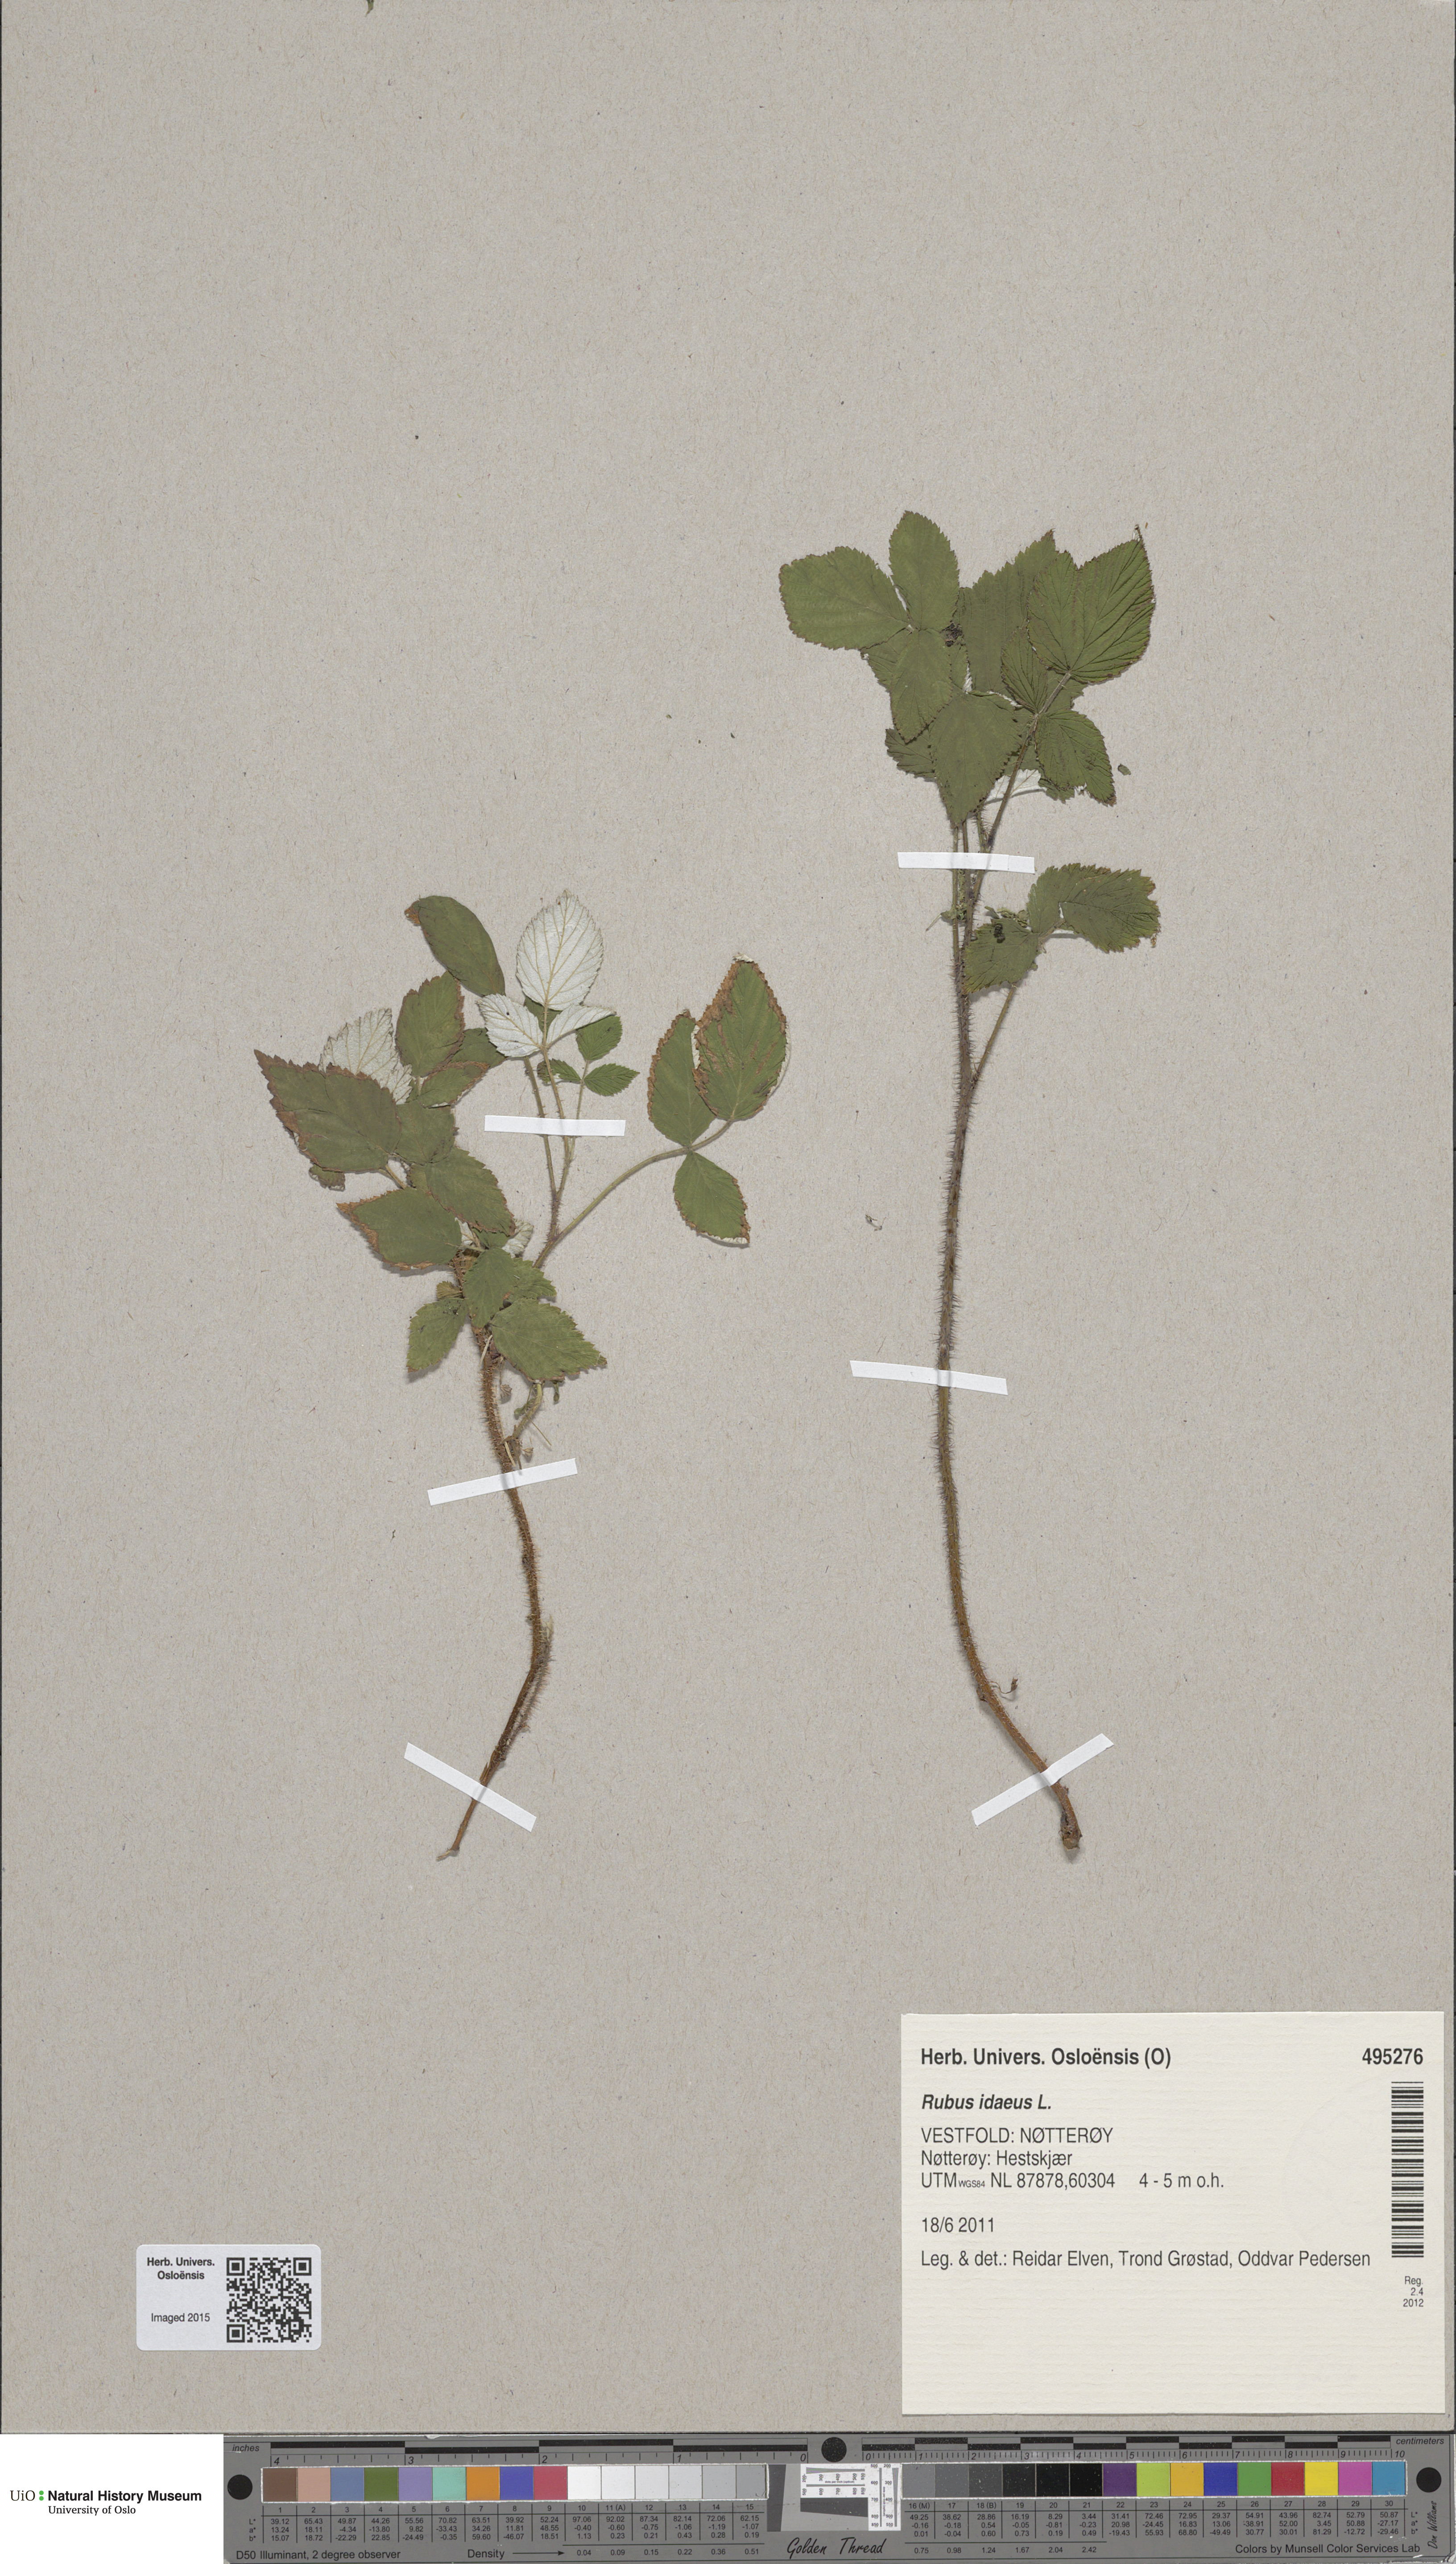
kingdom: Plantae
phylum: Tracheophyta
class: Magnoliopsida
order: Rosales
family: Rosaceae
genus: Rubus
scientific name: Rubus idaeus
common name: Raspberry
